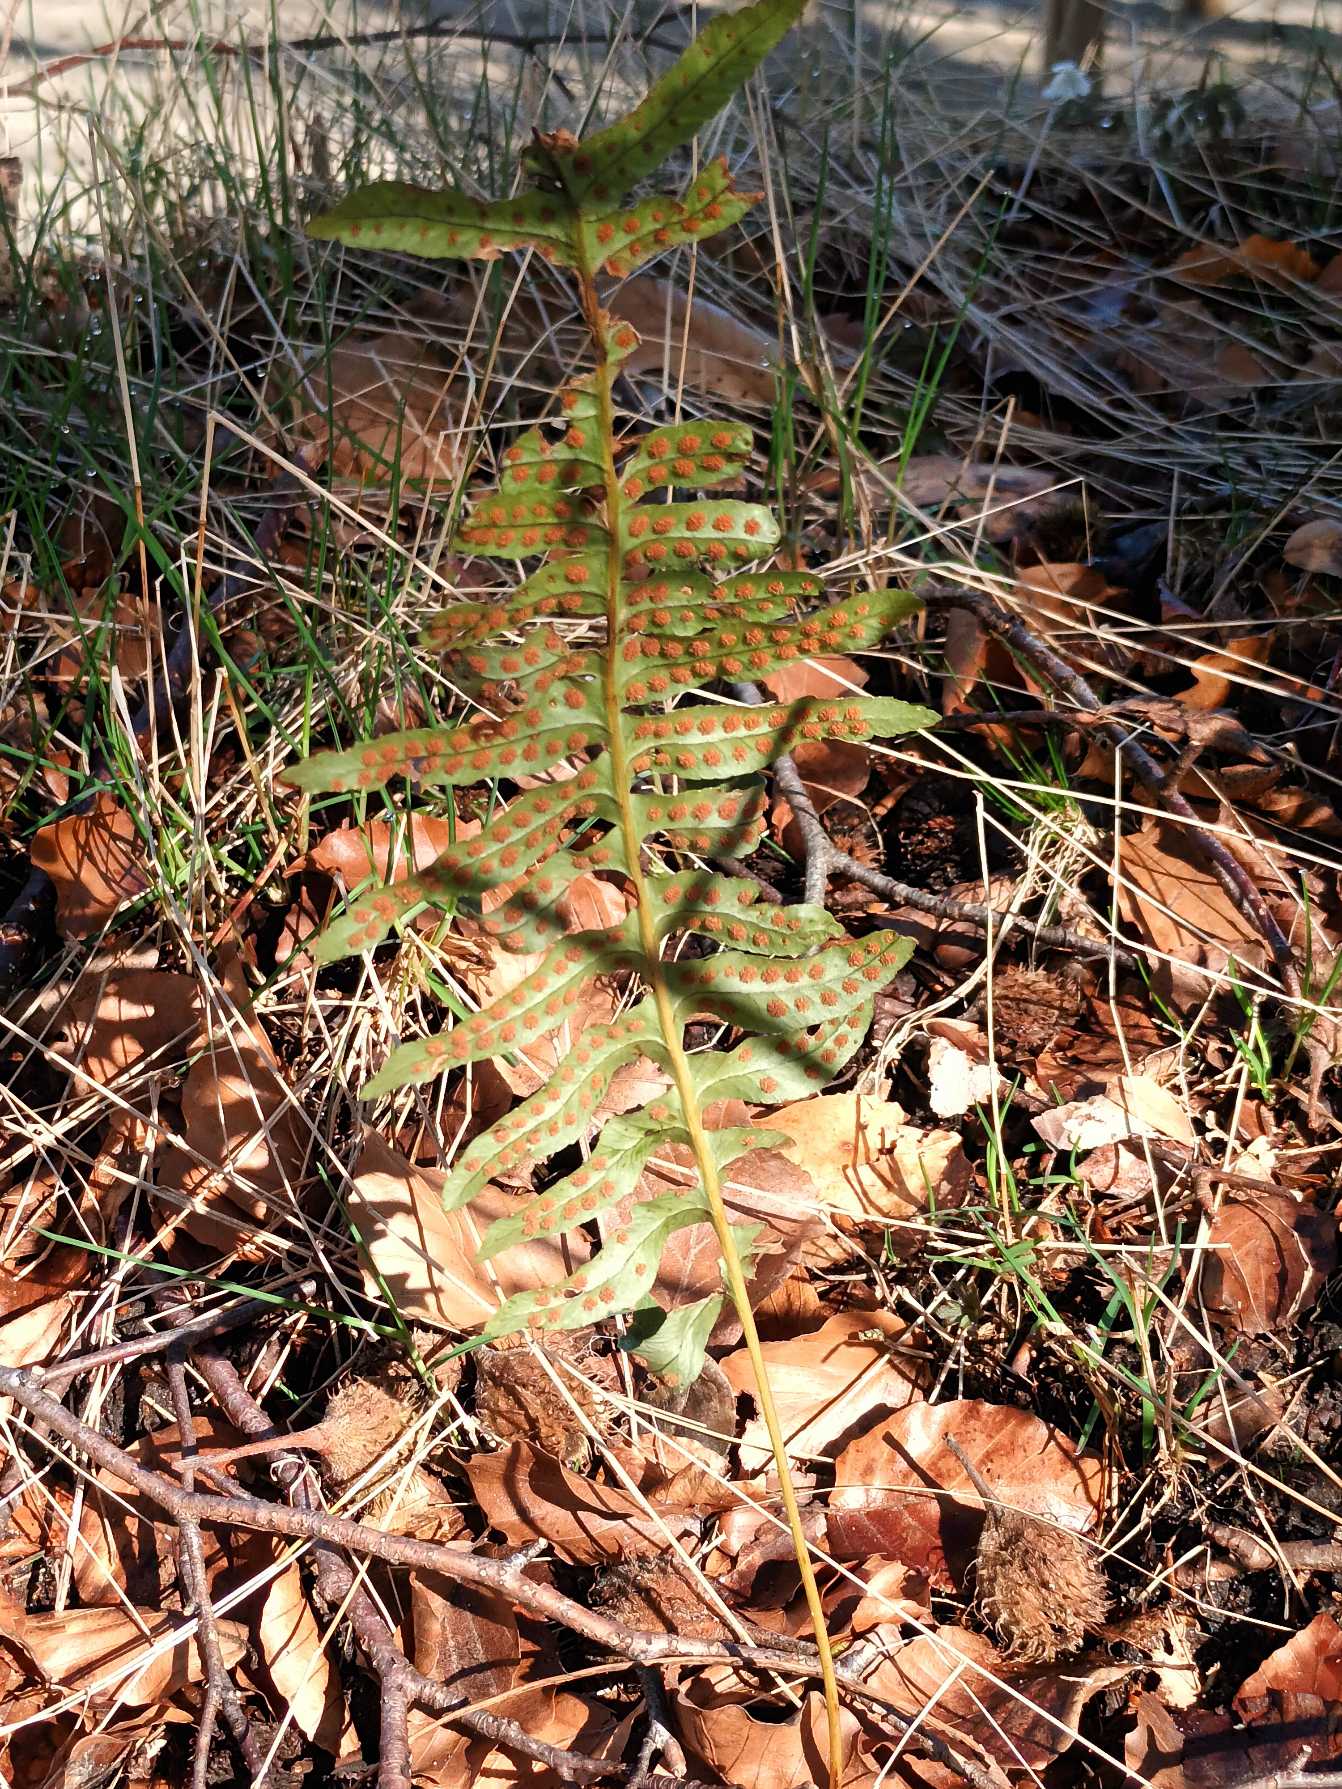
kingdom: Plantae
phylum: Tracheophyta
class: Polypodiopsida
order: Polypodiales
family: Polypodiaceae
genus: Polypodium
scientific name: Polypodium vulgare
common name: Almindelig engelsød
